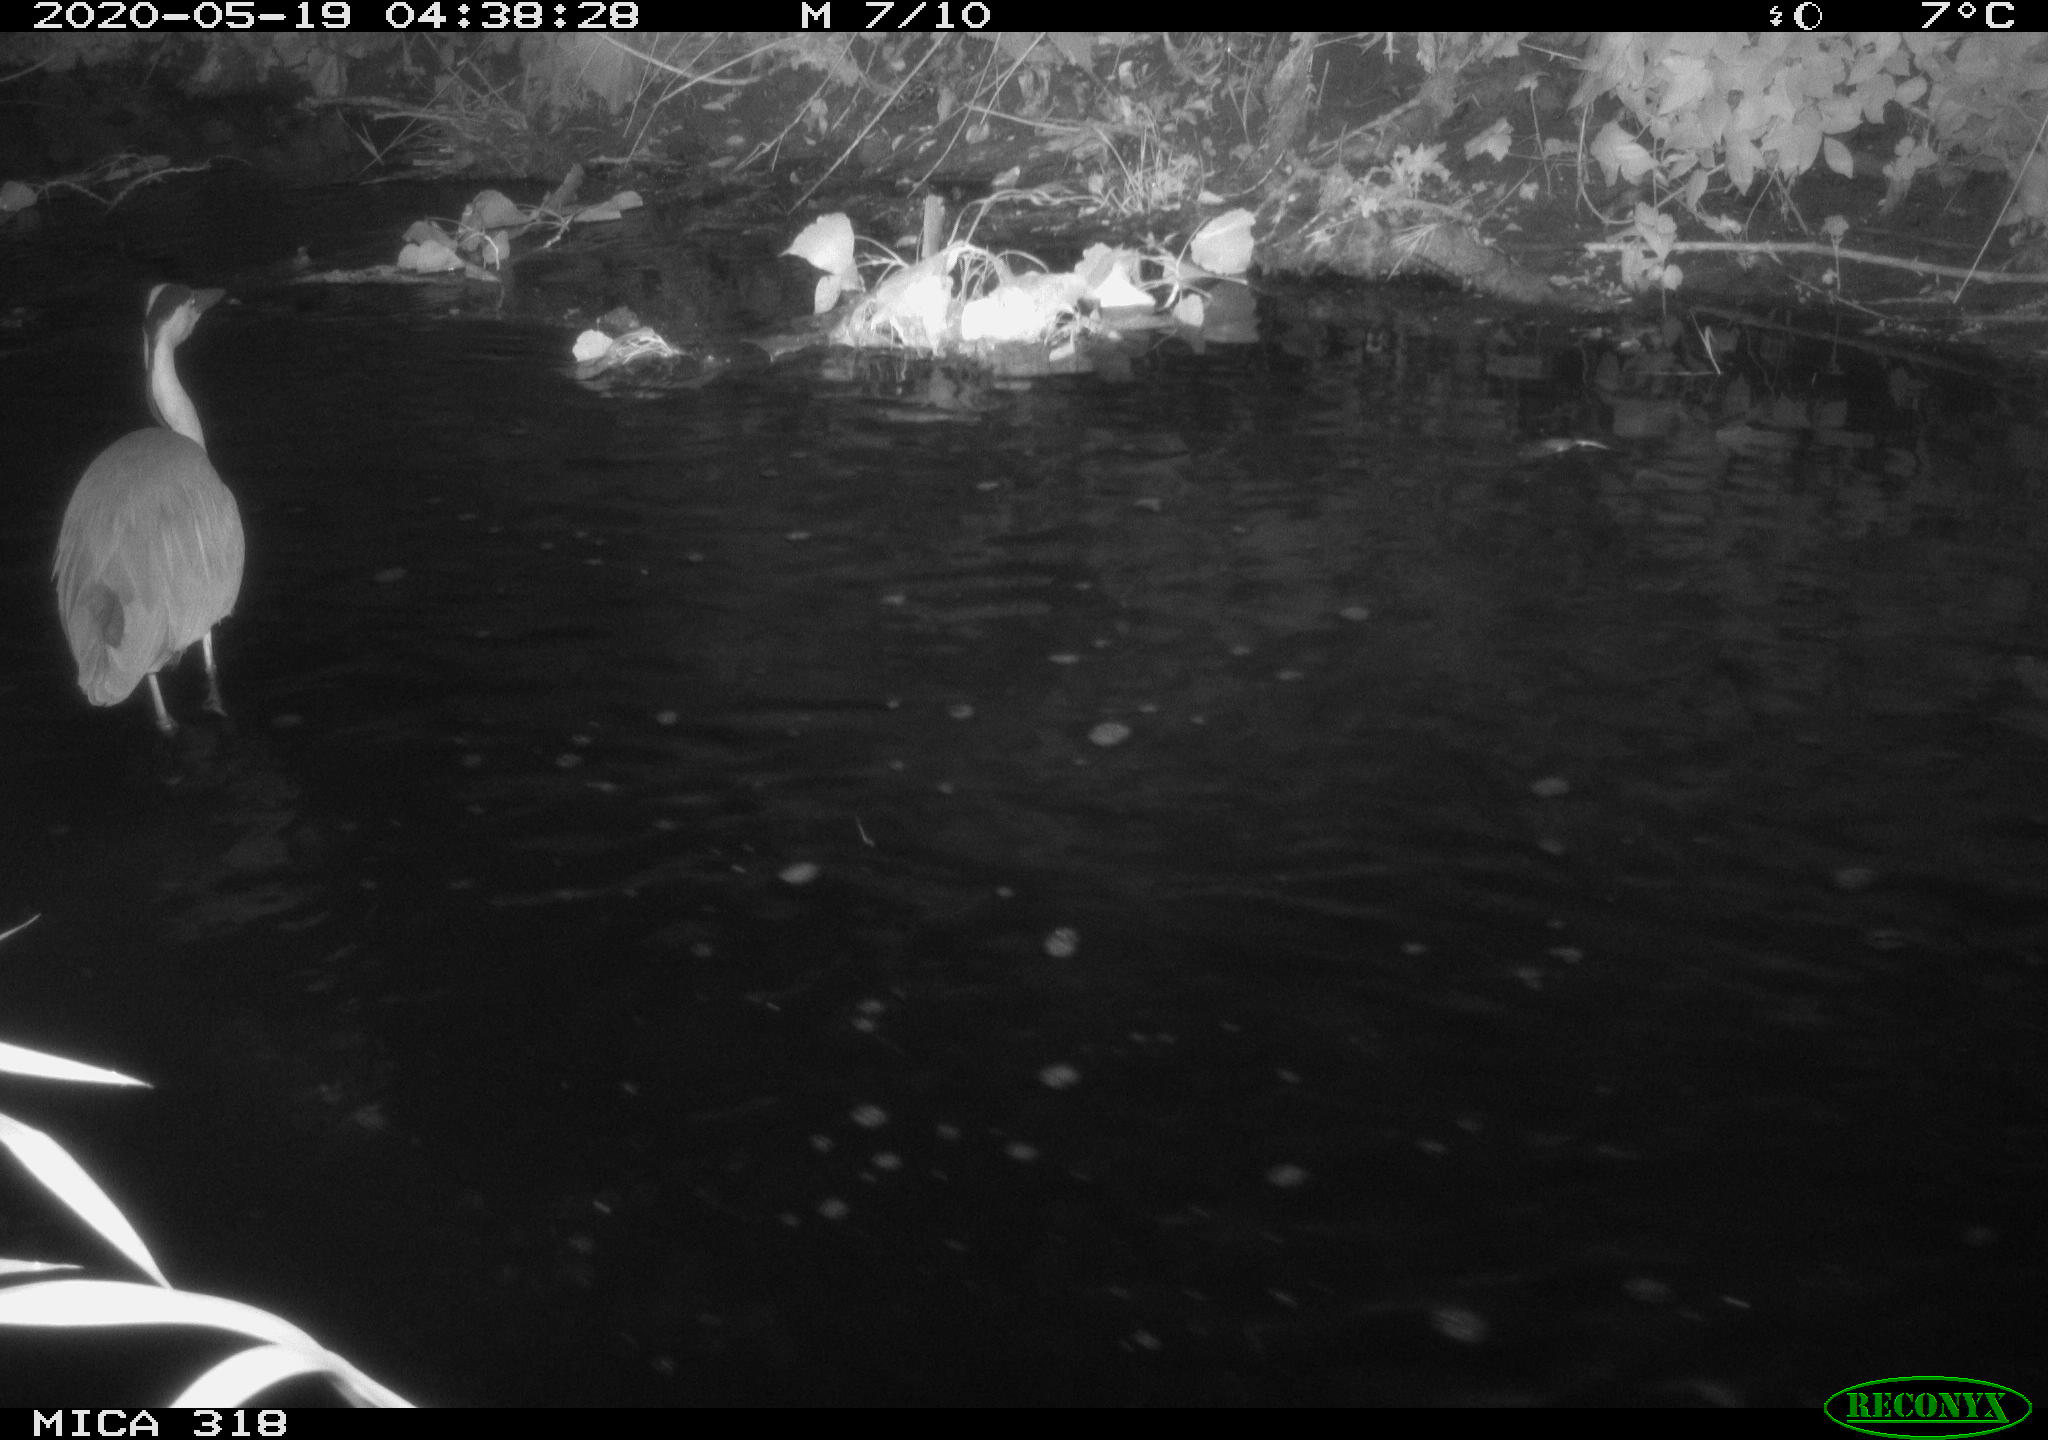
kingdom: Animalia
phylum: Chordata
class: Aves
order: Pelecaniformes
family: Ardeidae
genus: Ardea
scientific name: Ardea cinerea
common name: Grey heron
